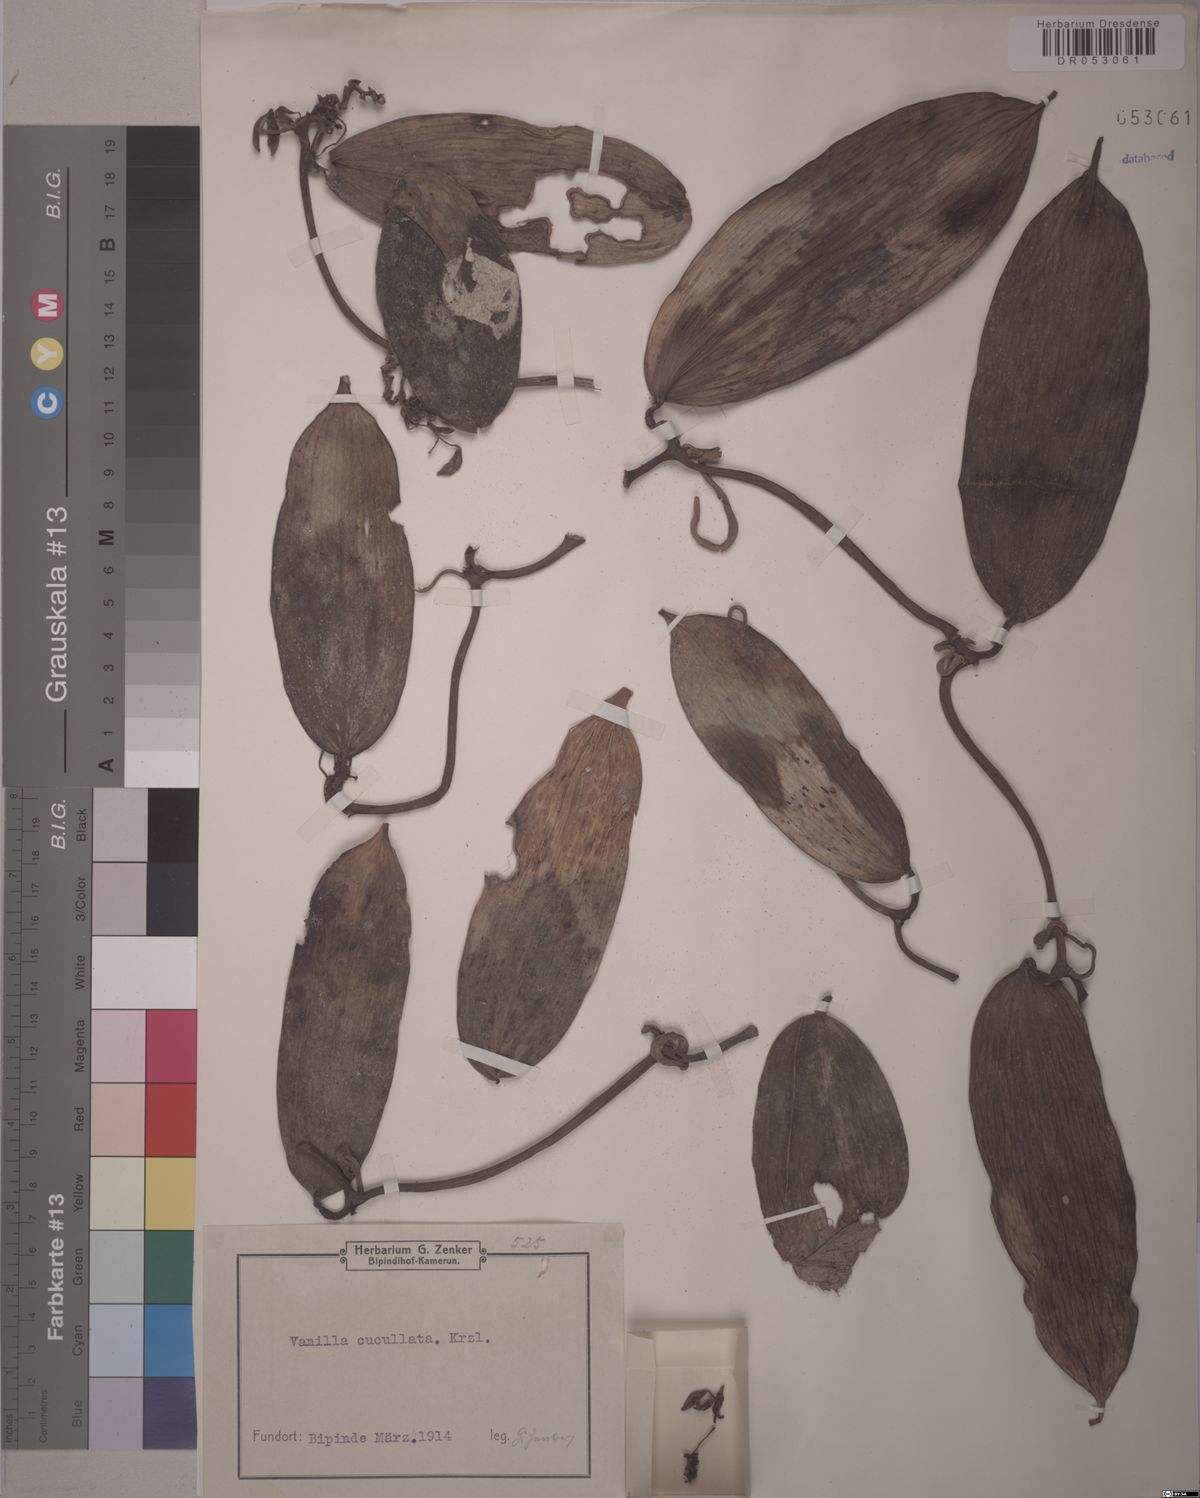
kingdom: Plantae
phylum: Tracheophyta
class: Liliopsida
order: Asparagales
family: Orchidaceae
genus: Vanilla
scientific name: Vanilla cucullata
